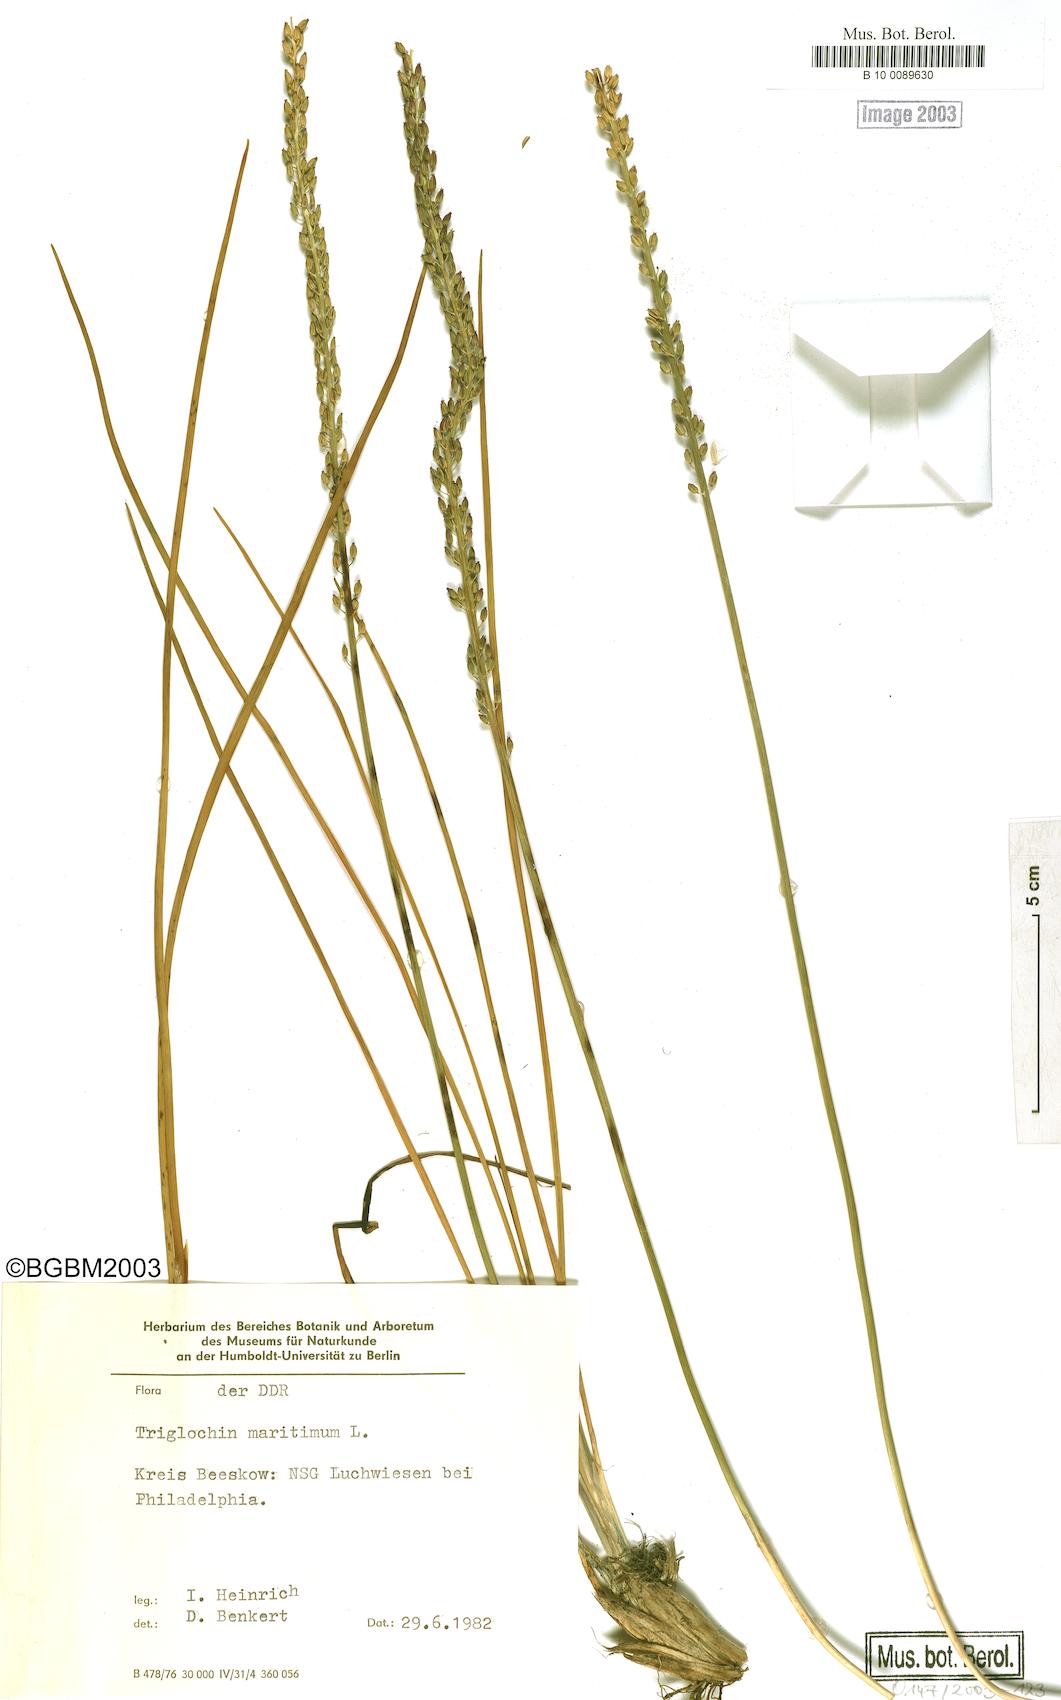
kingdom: Plantae
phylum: Tracheophyta
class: Liliopsida
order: Alismatales
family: Juncaginaceae
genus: Triglochin
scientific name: Triglochin maritima
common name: Sea arrowgrass
